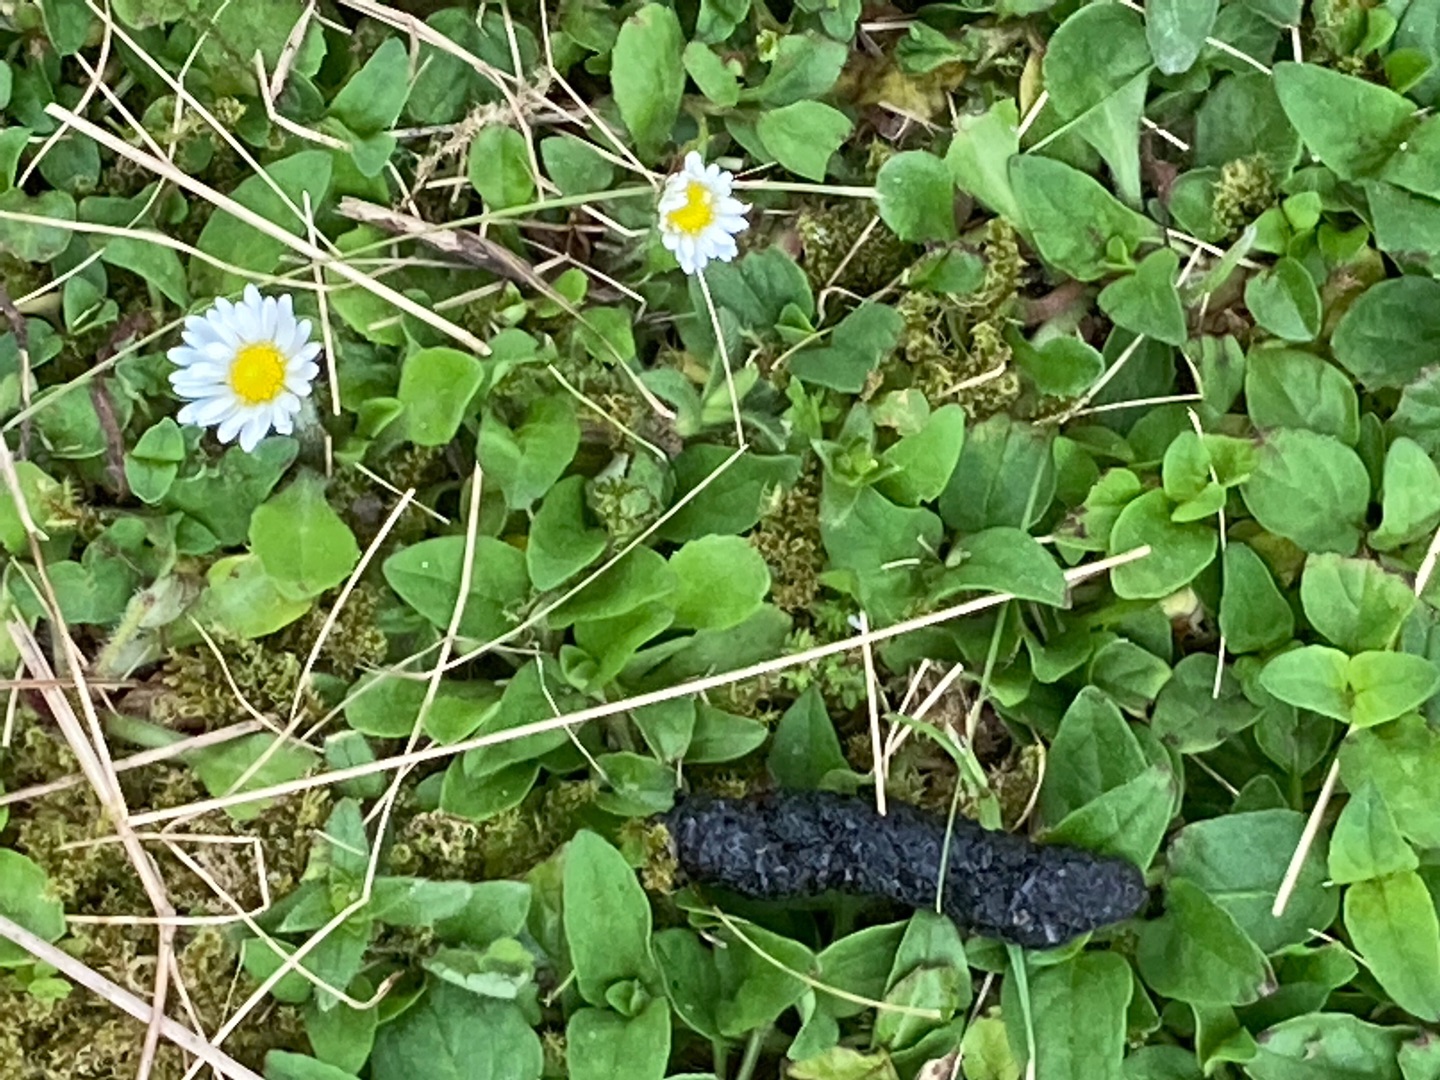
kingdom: Plantae
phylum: Tracheophyta
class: Magnoliopsida
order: Asterales
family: Asteraceae
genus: Bellis
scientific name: Bellis perennis
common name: Tusindfryd
